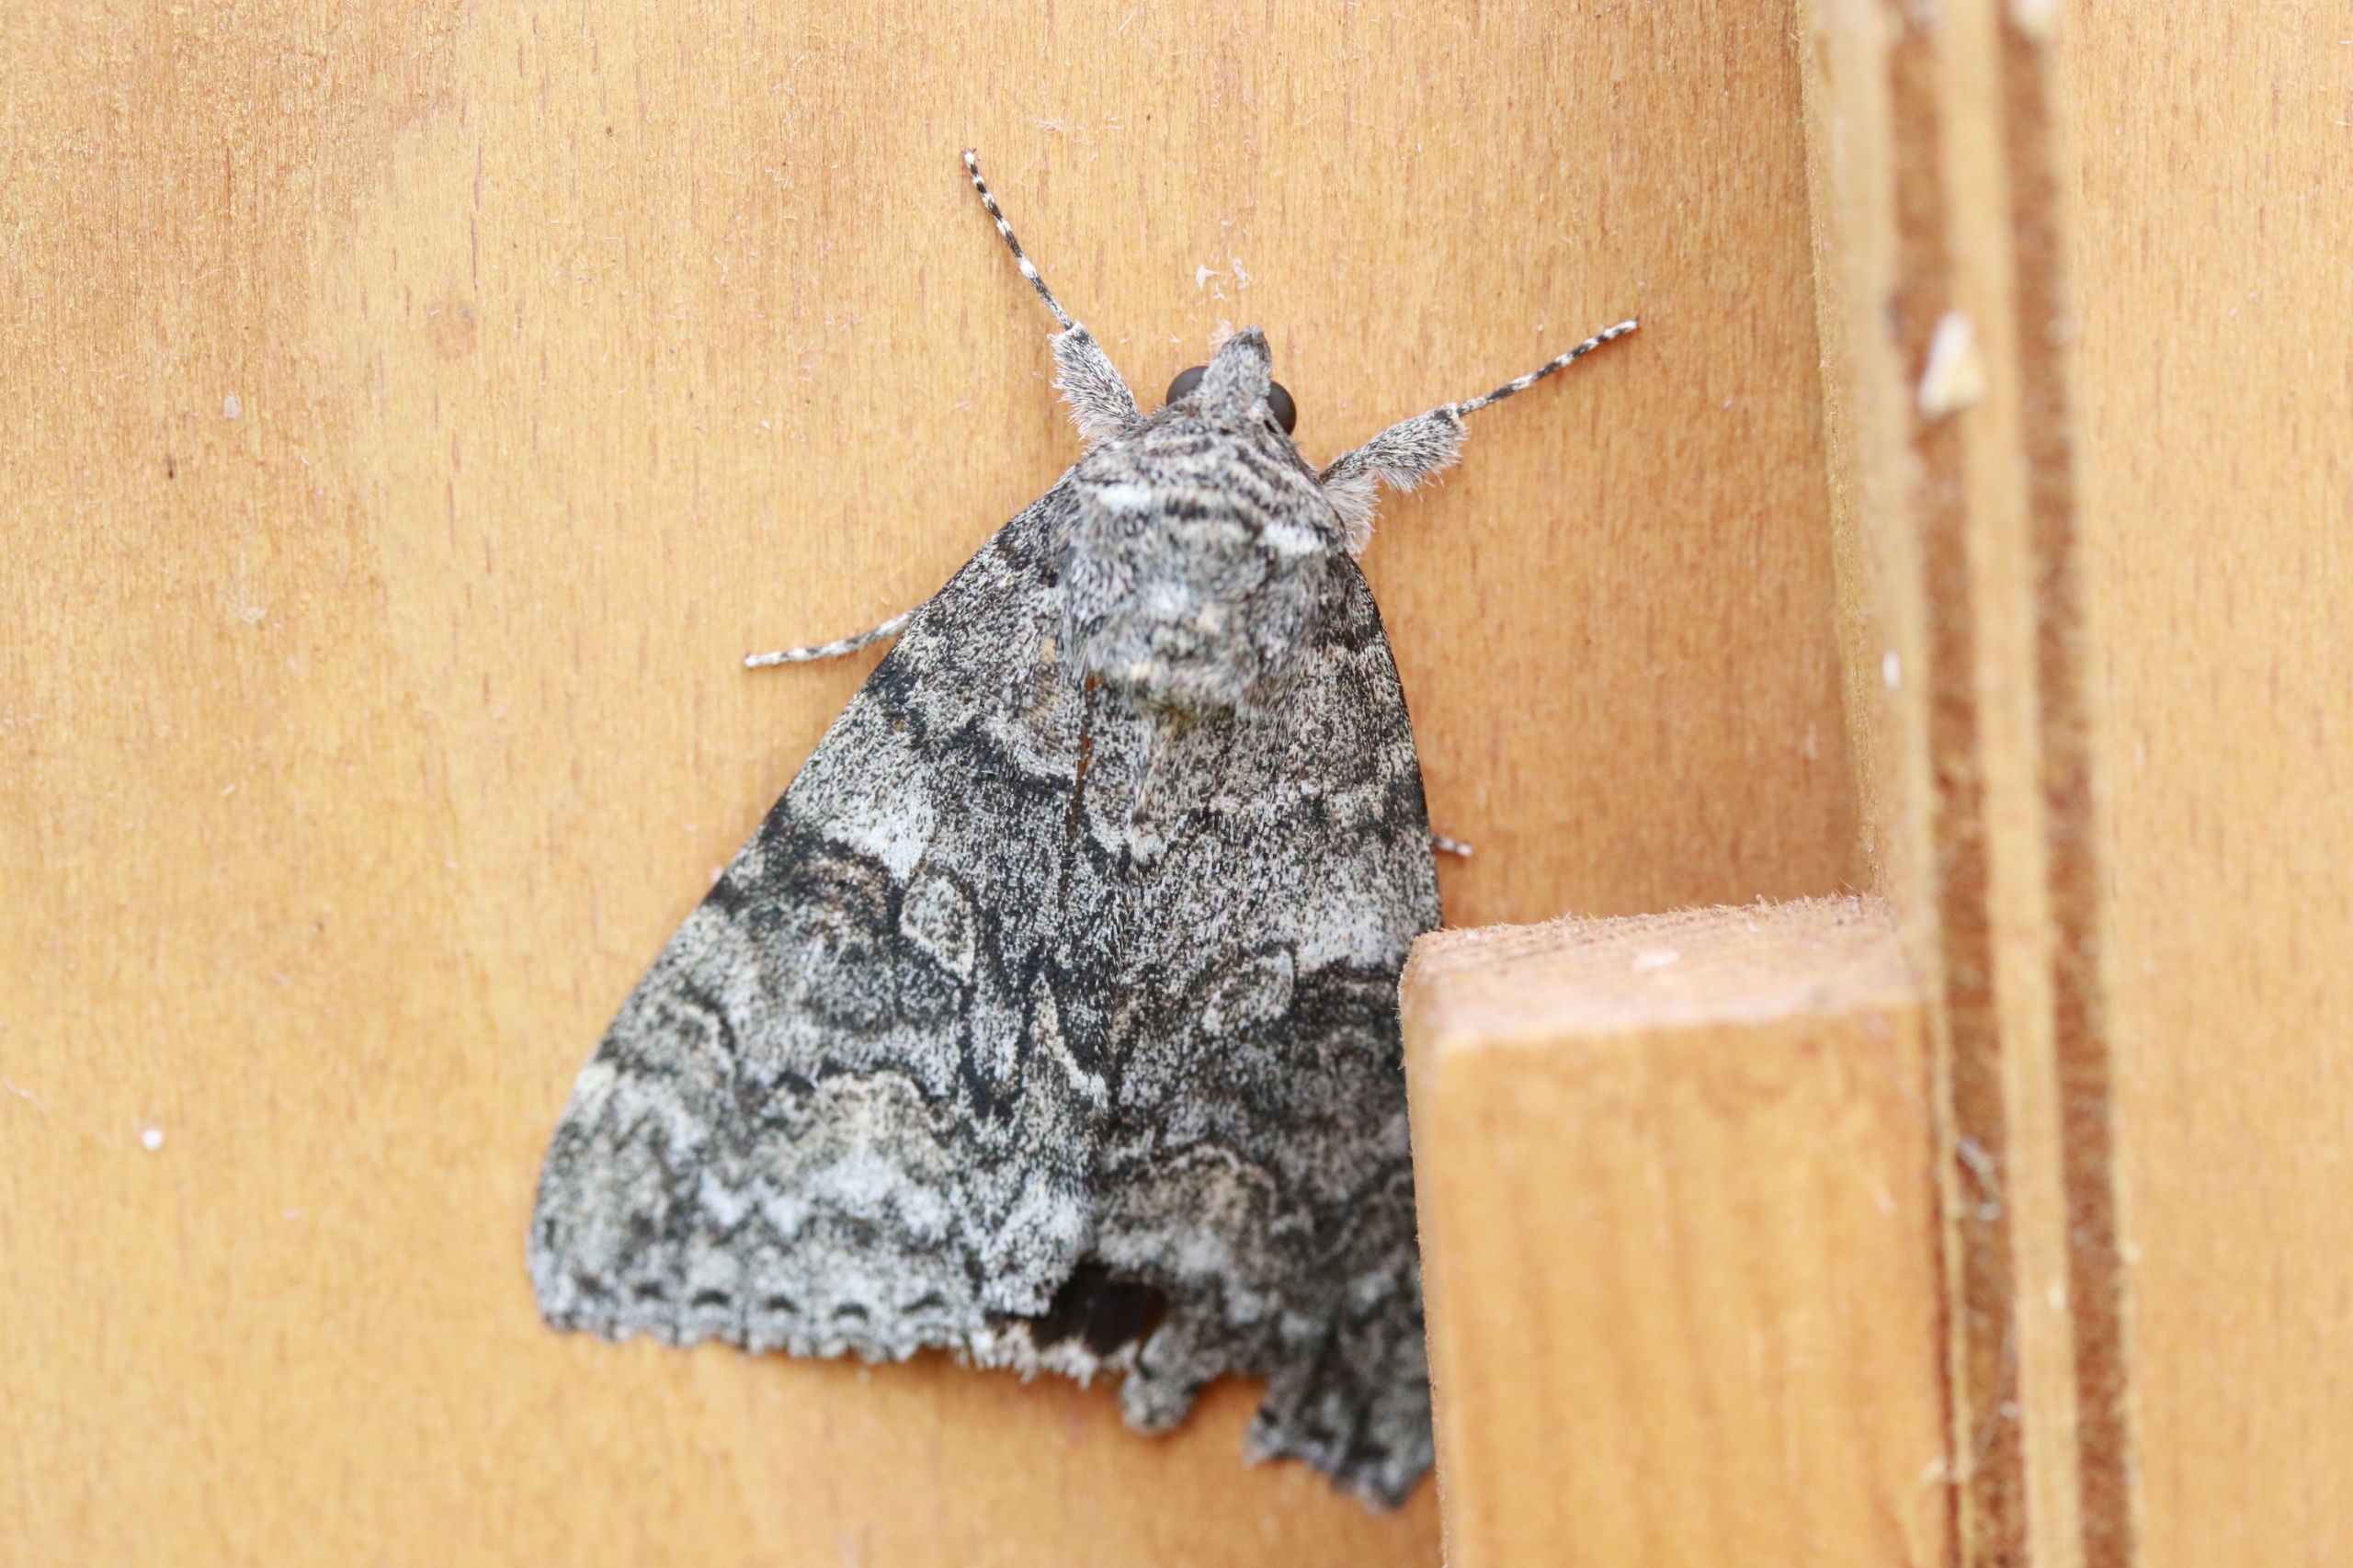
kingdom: Animalia
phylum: Arthropoda
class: Insecta
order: Lepidoptera
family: Erebidae
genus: Catocala
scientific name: Catocala nupta
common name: Rødt ordensbånd
